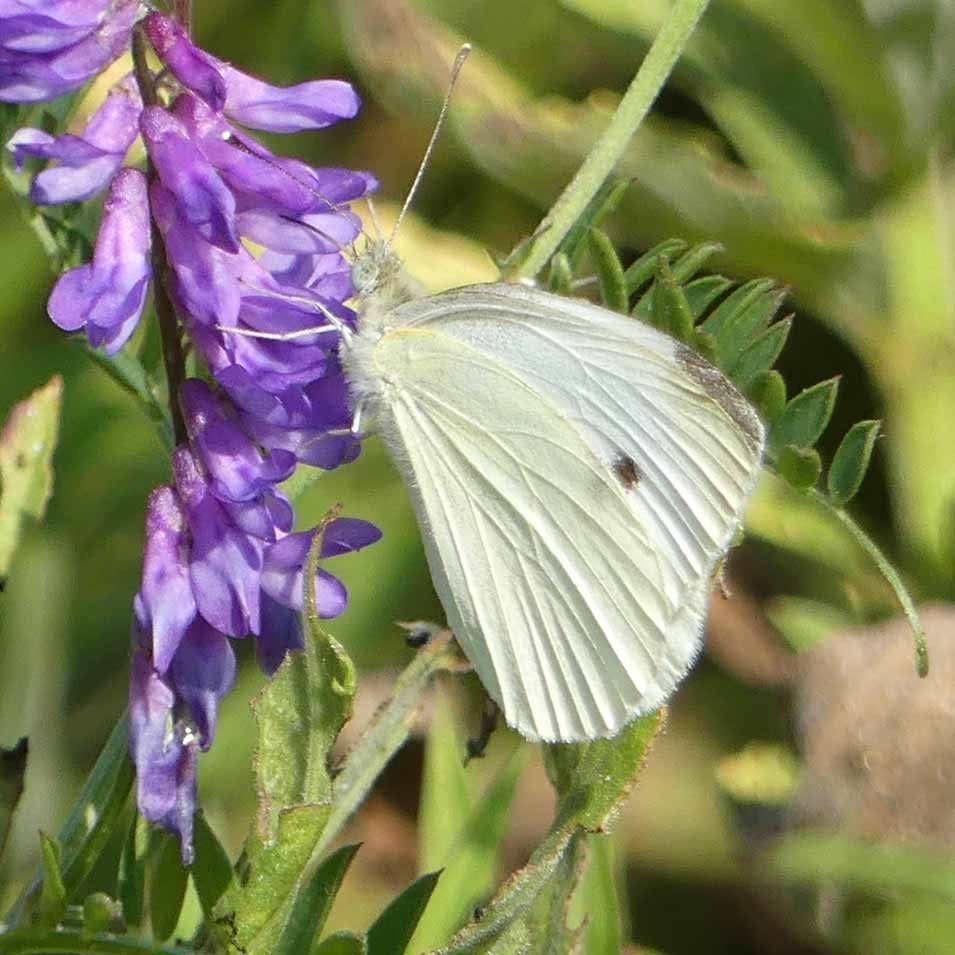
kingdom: Animalia
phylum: Arthropoda
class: Insecta
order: Lepidoptera
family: Pieridae
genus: Pieris
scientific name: Pieris rapae
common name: Cabbage White
